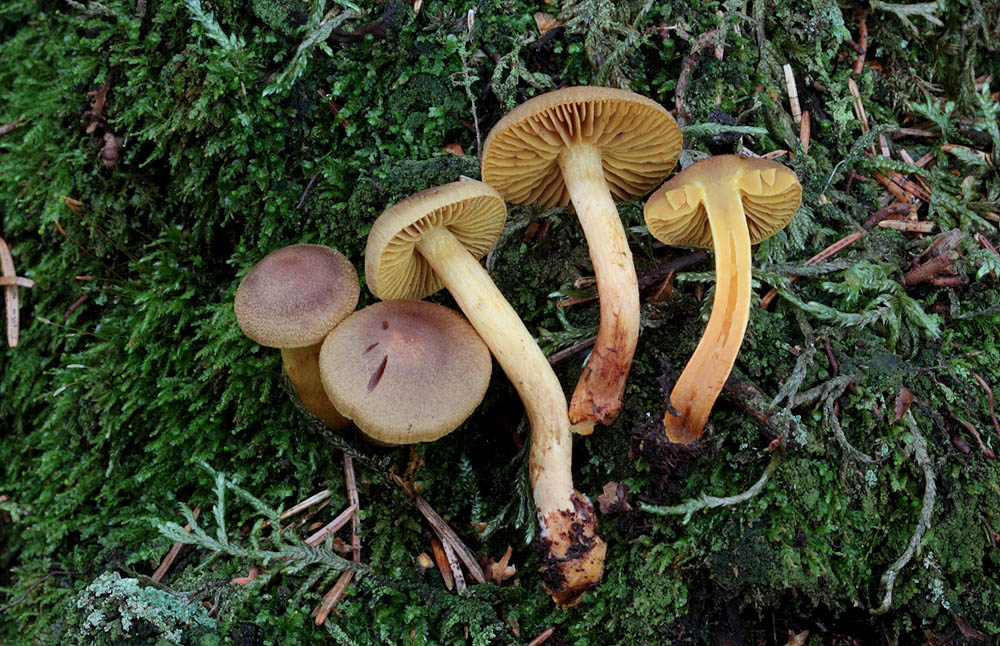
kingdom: Fungi
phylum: Basidiomycota
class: Agaricomycetes
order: Agaricales
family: Cortinariaceae
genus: Cortinarius
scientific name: Cortinarius
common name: gulbladet slørhat
